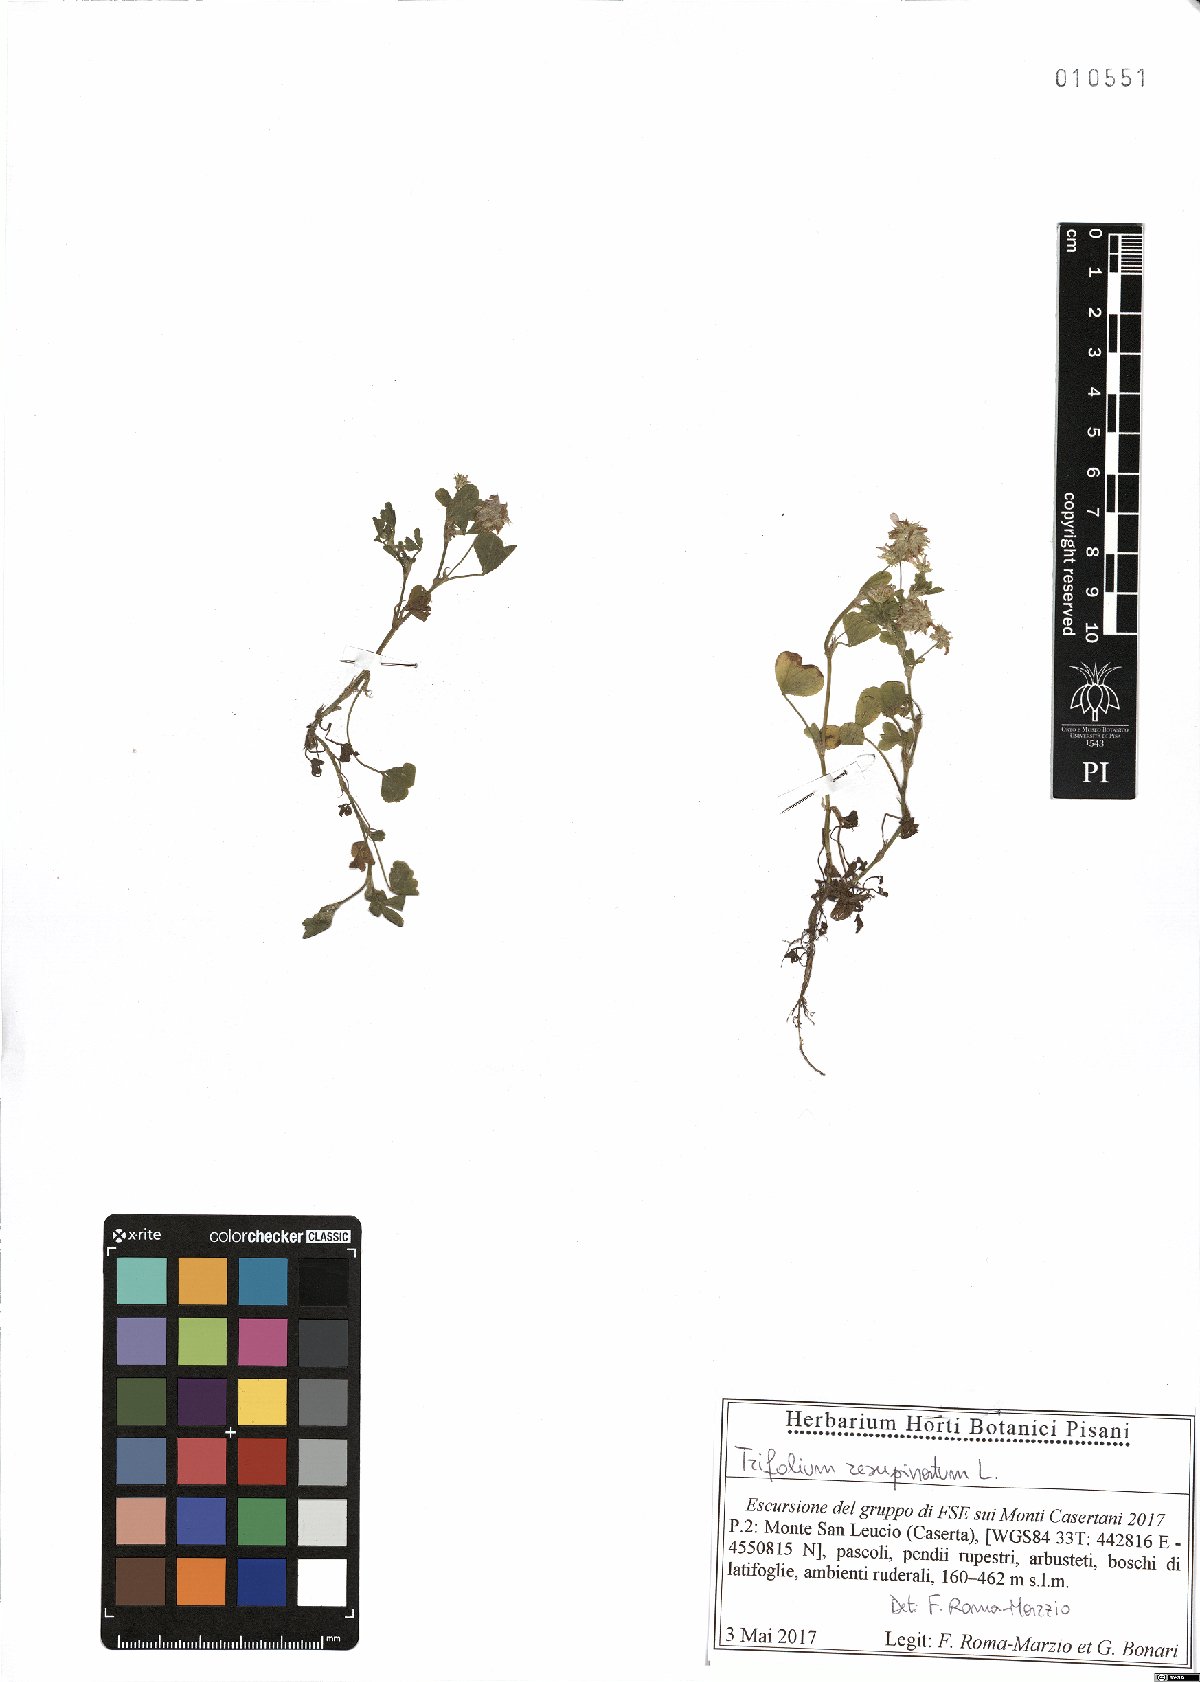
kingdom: Plantae
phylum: Tracheophyta
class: Magnoliopsida
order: Fabales
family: Fabaceae
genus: Trifolium
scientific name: Trifolium resupinatum
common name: Reversed clover
